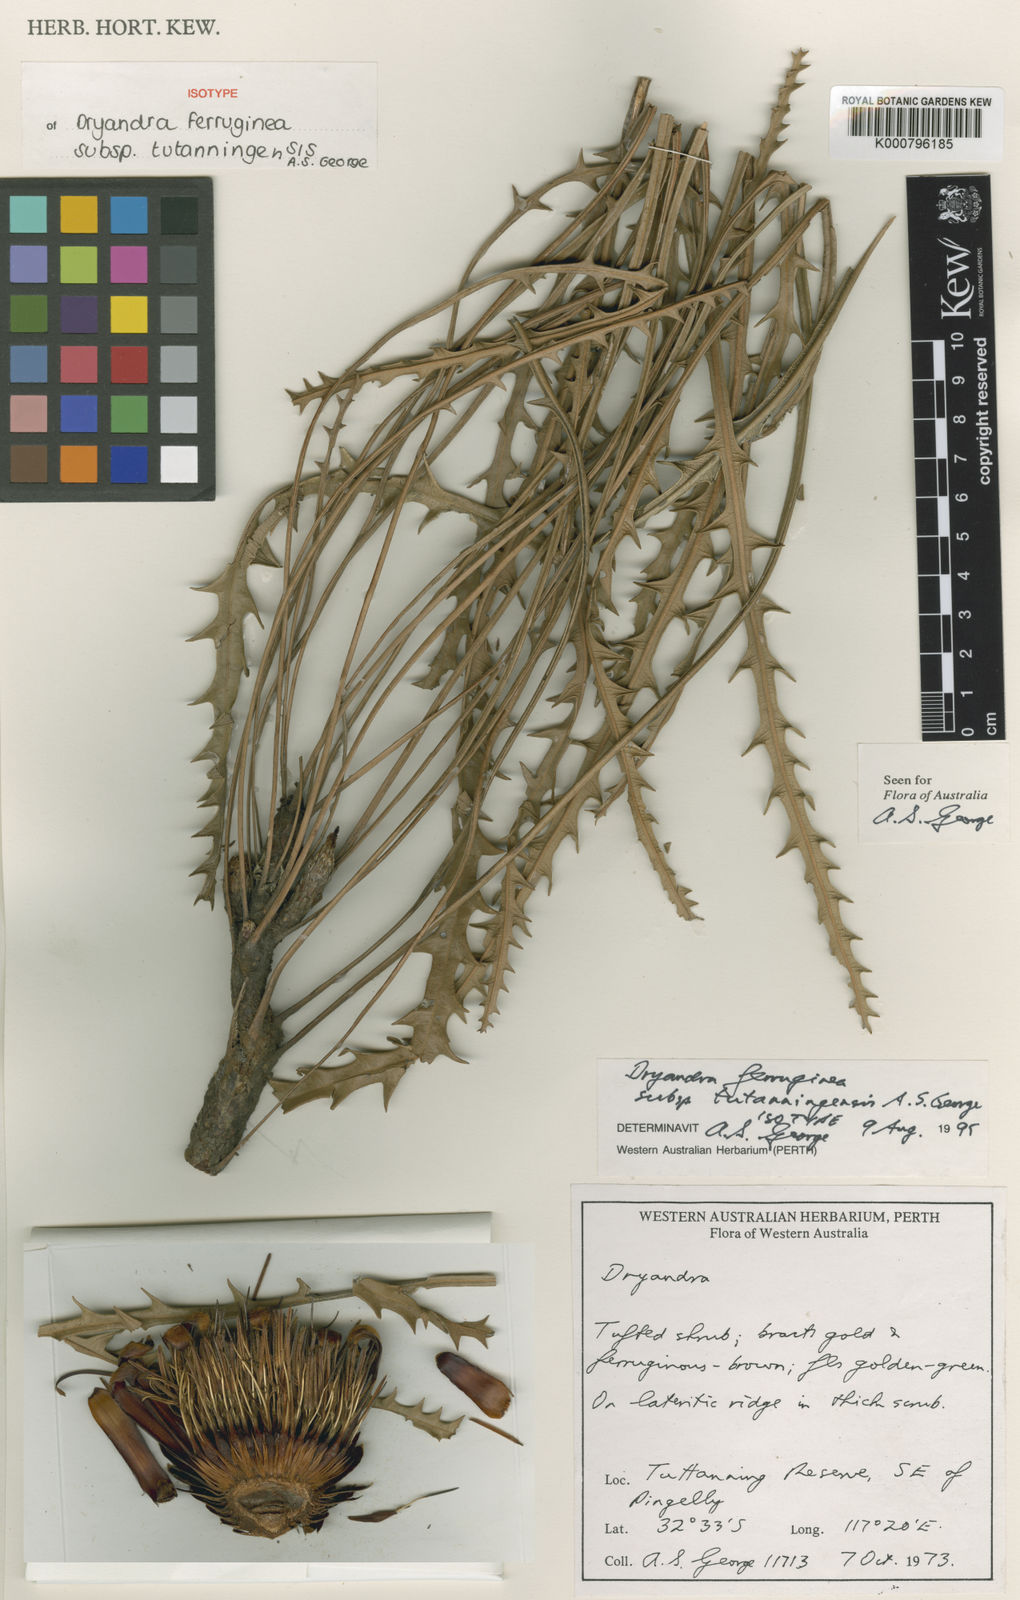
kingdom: Plantae
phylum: Tracheophyta
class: Magnoliopsida
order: Proteales
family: Proteaceae
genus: Banksia
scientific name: Banksia rufa
